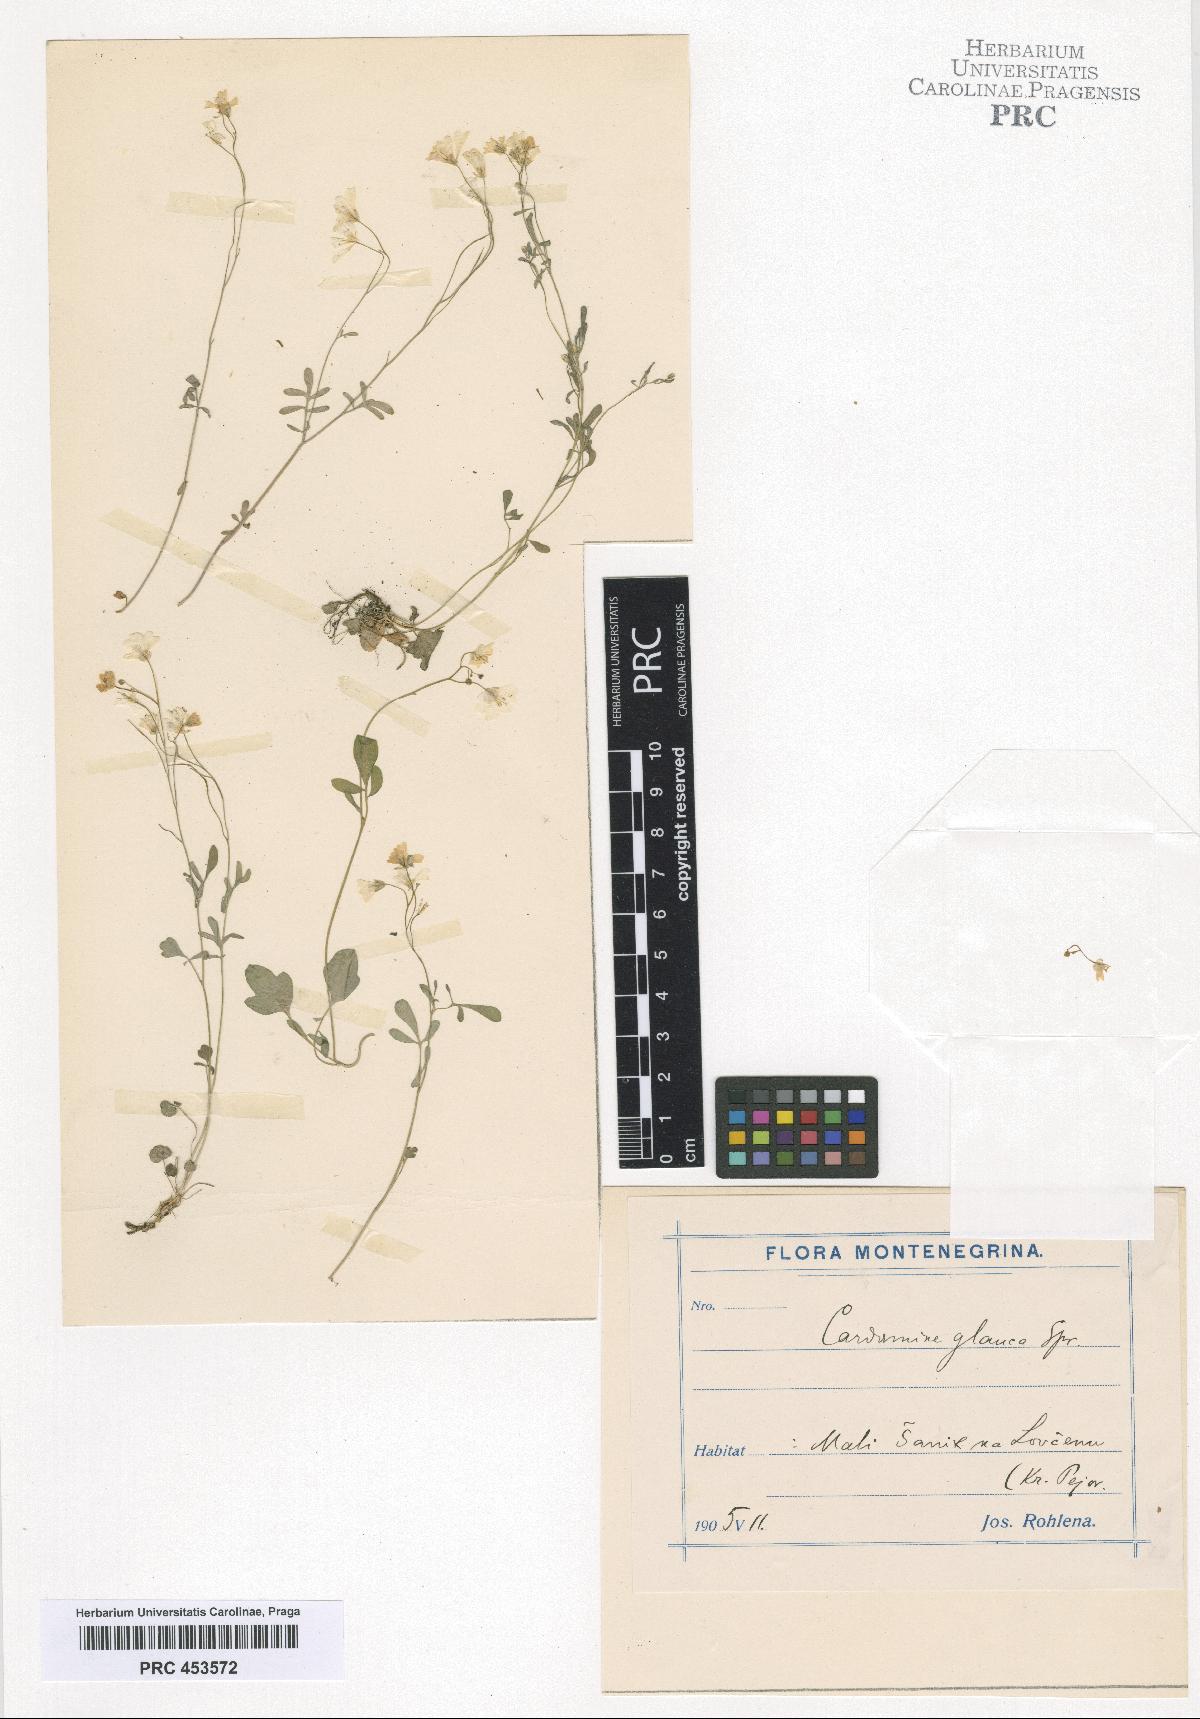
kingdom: Plantae
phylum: Tracheophyta
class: Magnoliopsida
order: Brassicales
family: Brassicaceae
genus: Cardamine
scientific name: Cardamine glauca
